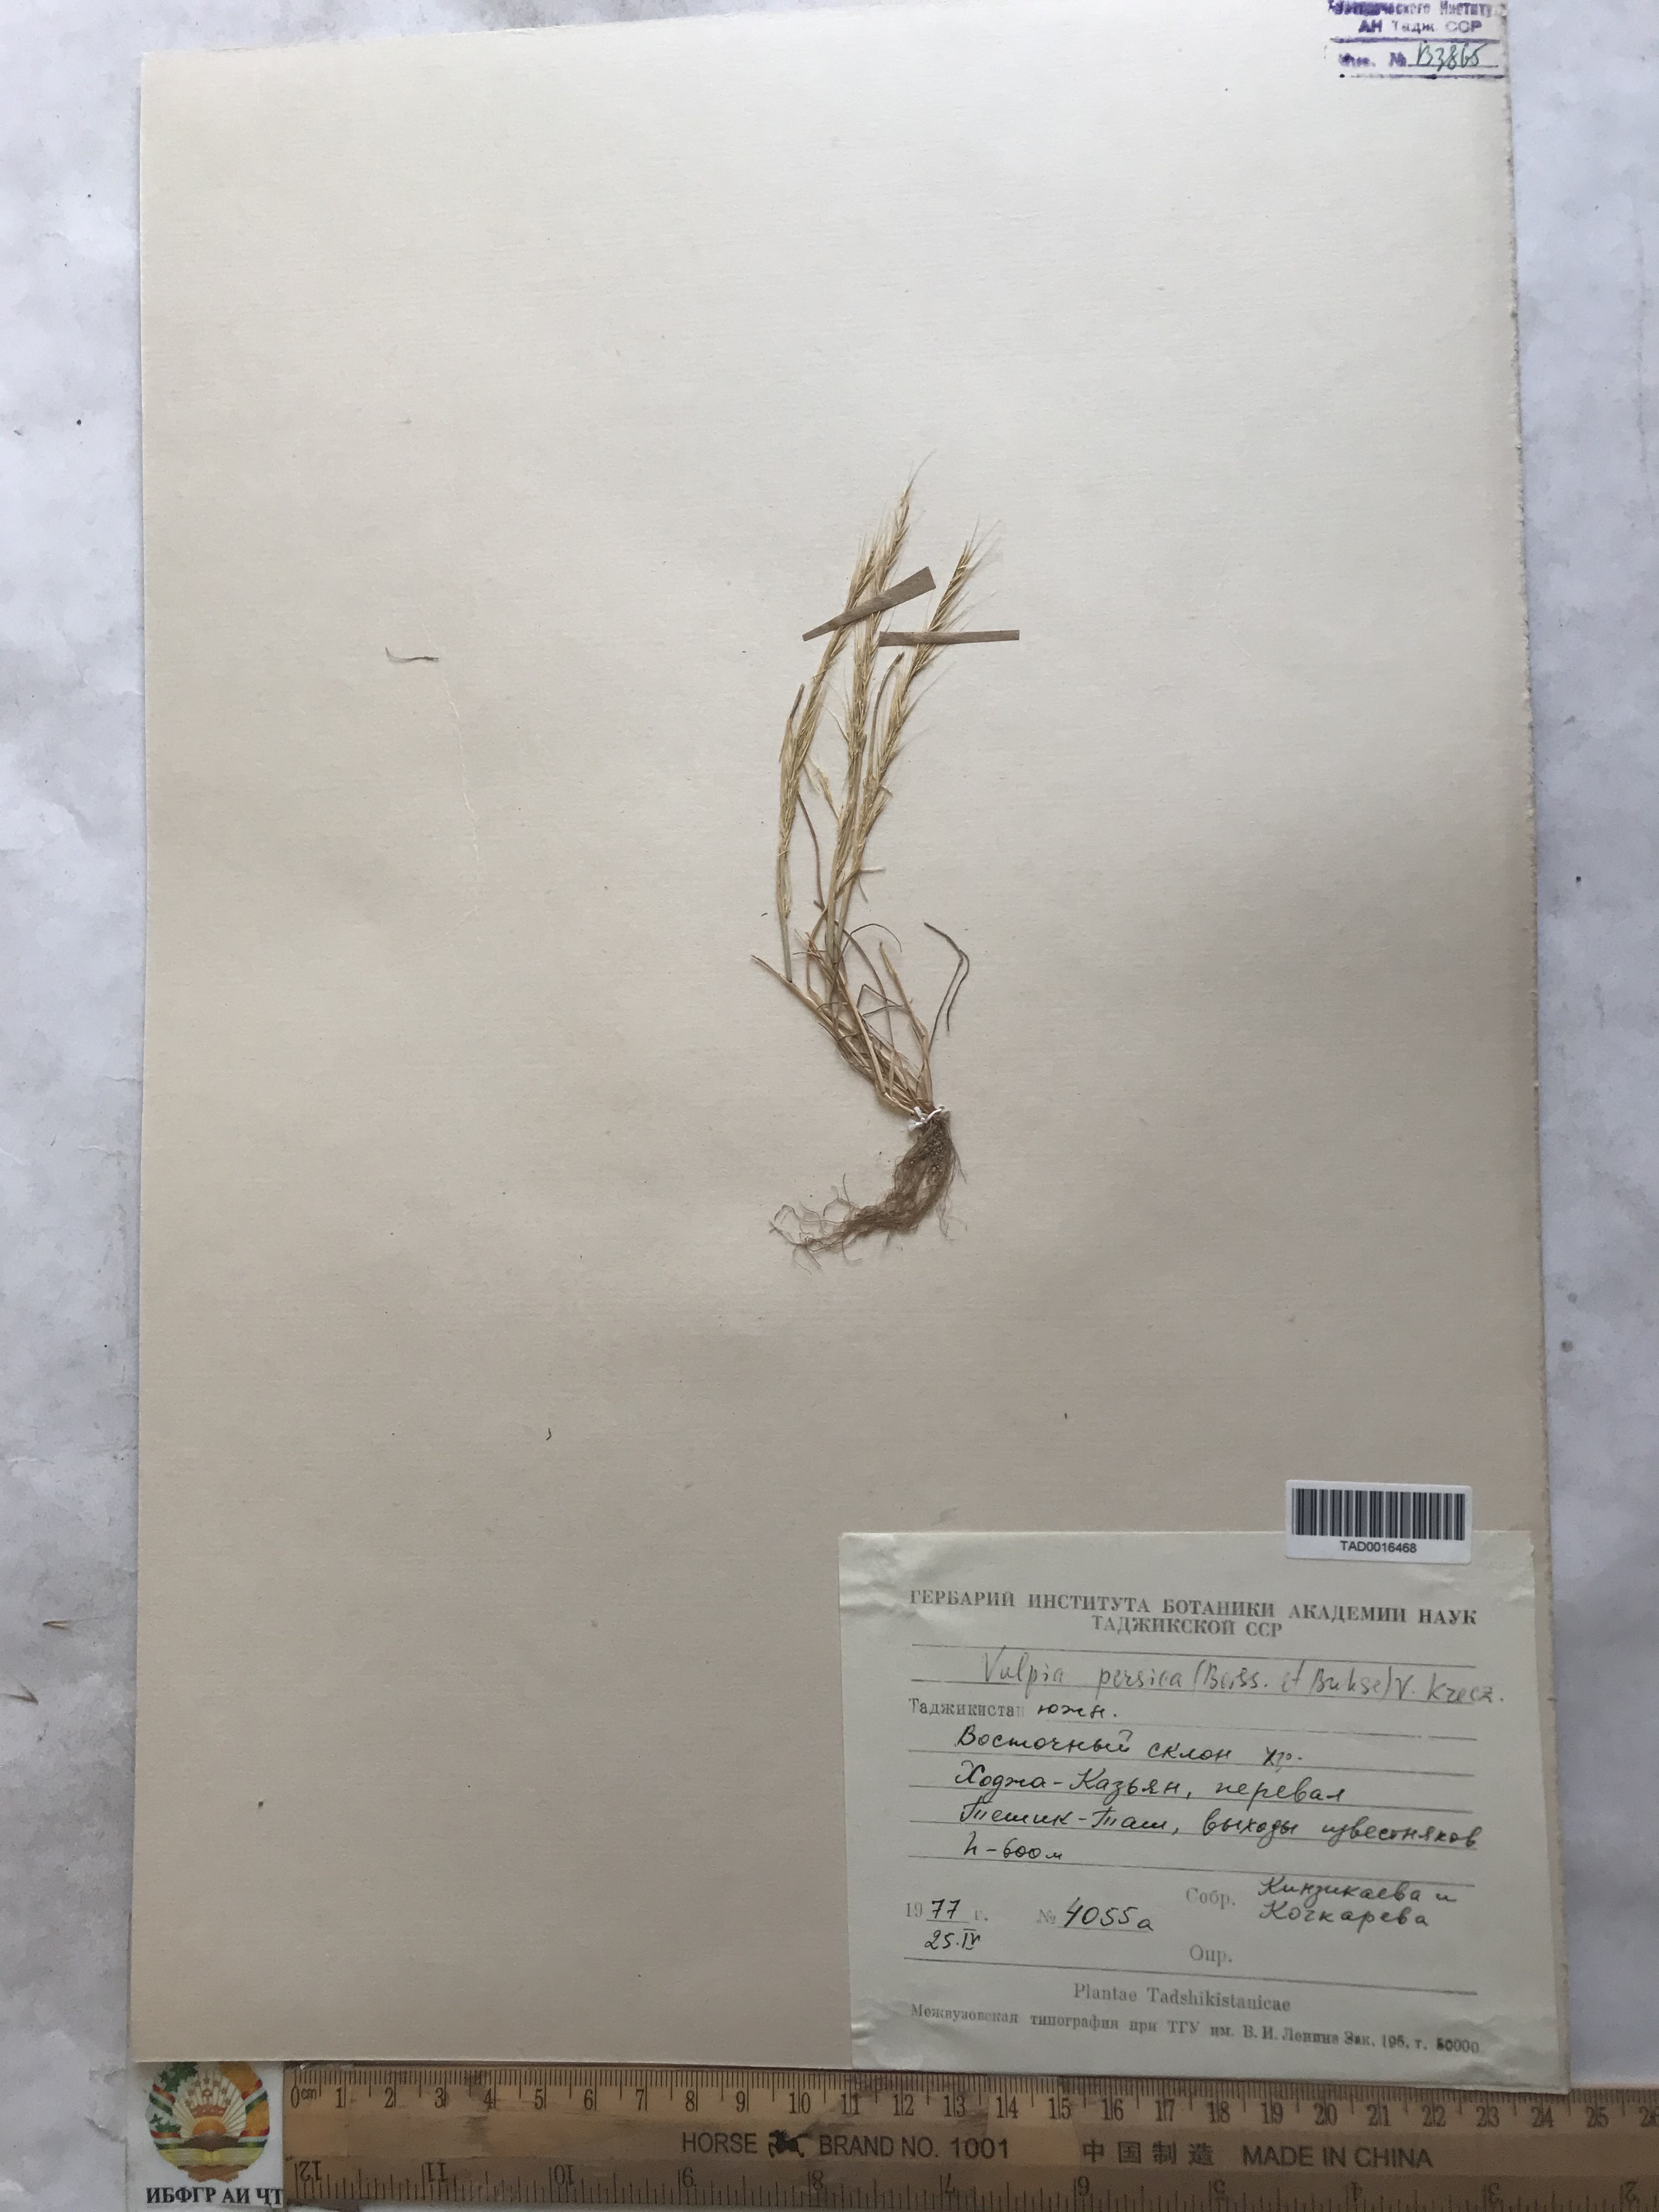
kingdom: Plantae
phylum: Tracheophyta
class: Liliopsida
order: Poales
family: Poaceae
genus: Festuca
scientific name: Festuca Vulpia persica
